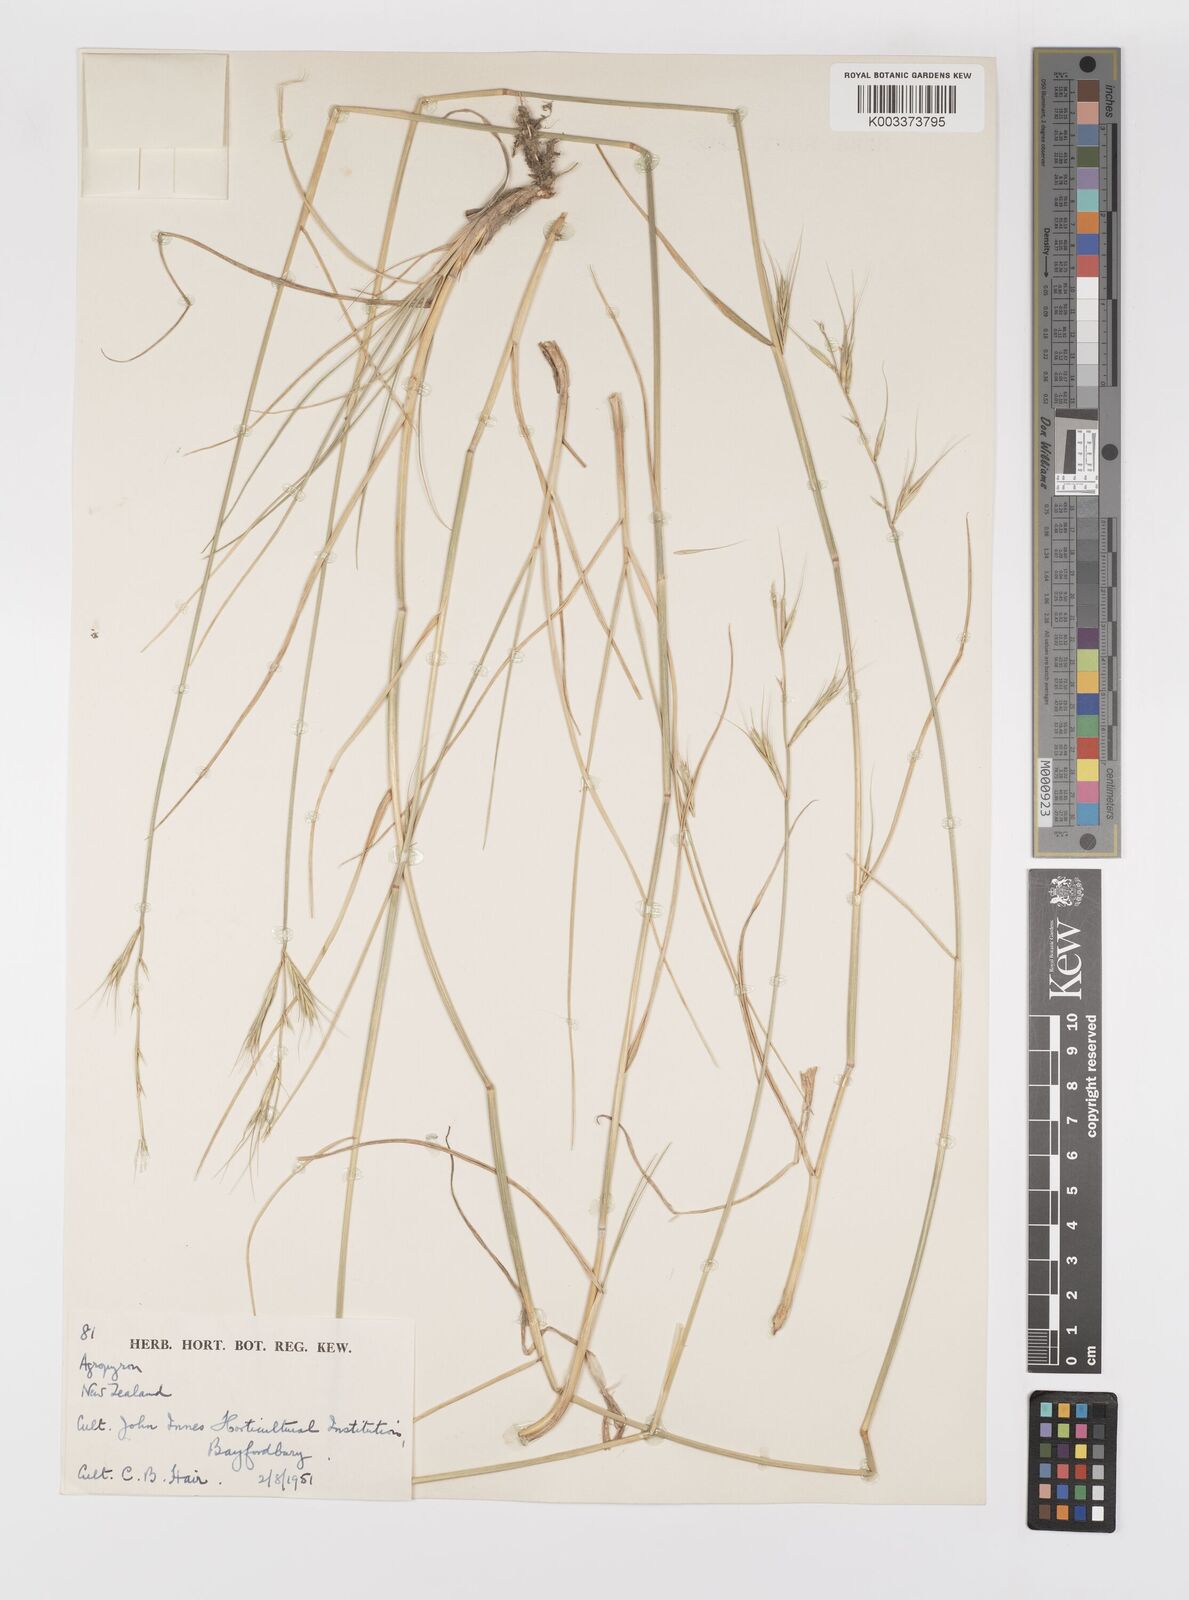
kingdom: Plantae
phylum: Tracheophyta
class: Liliopsida
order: Poales
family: Poaceae
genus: Elymus
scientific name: Elymus
